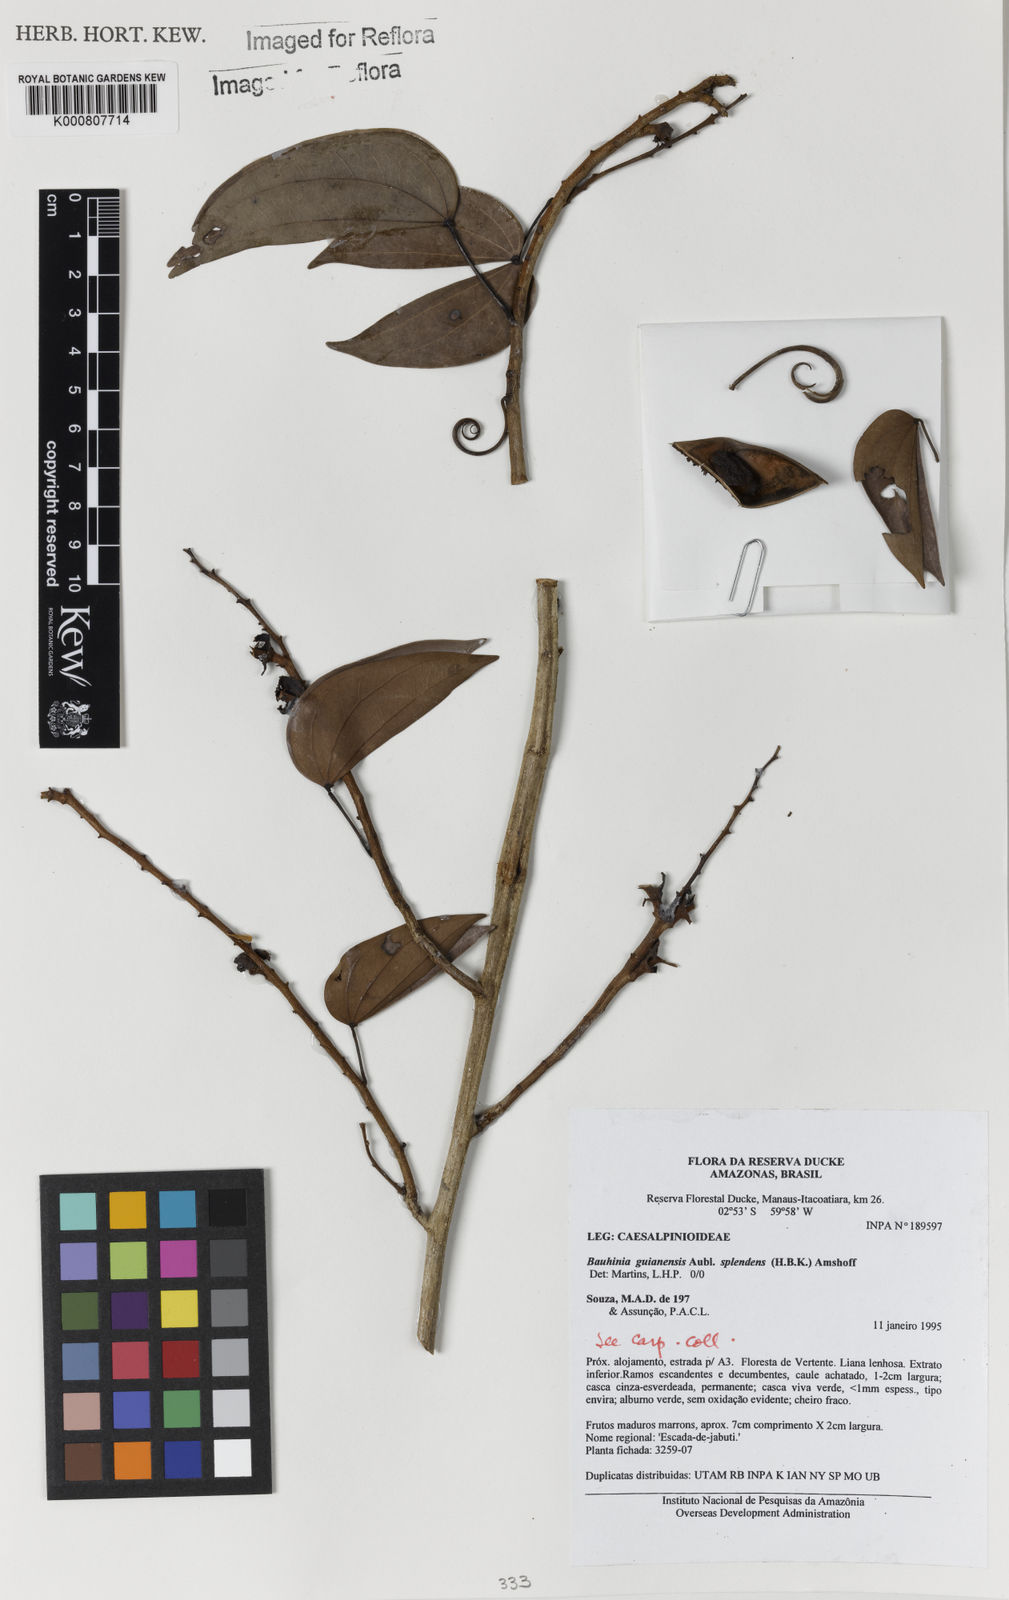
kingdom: Plantae
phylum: Tracheophyta
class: Magnoliopsida
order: Fabales
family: Fabaceae
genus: Schnella
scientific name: Schnella splendens
